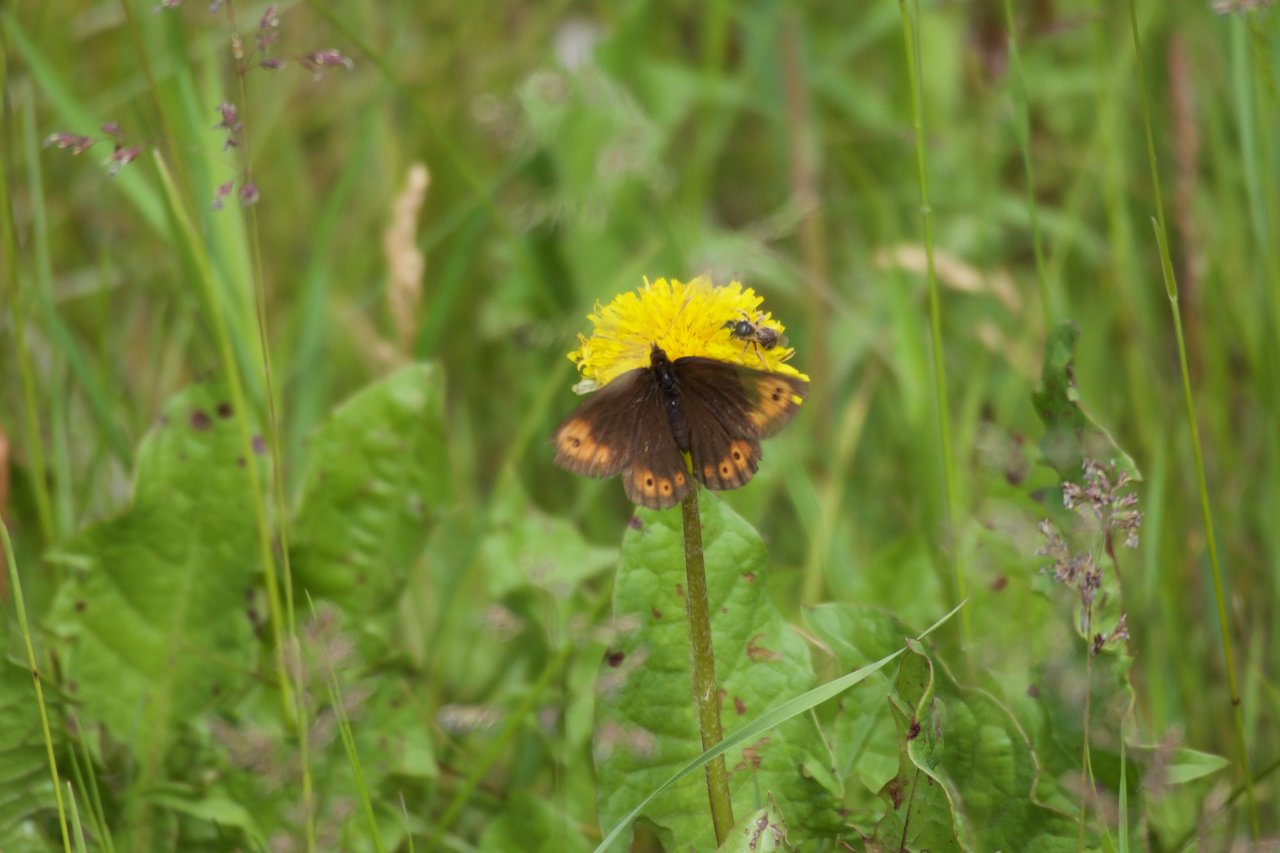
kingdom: Animalia
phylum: Arthropoda
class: Insecta
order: Lepidoptera
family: Nymphalidae
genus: Erebia
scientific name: Erebia epipsodea
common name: Common Alpine
